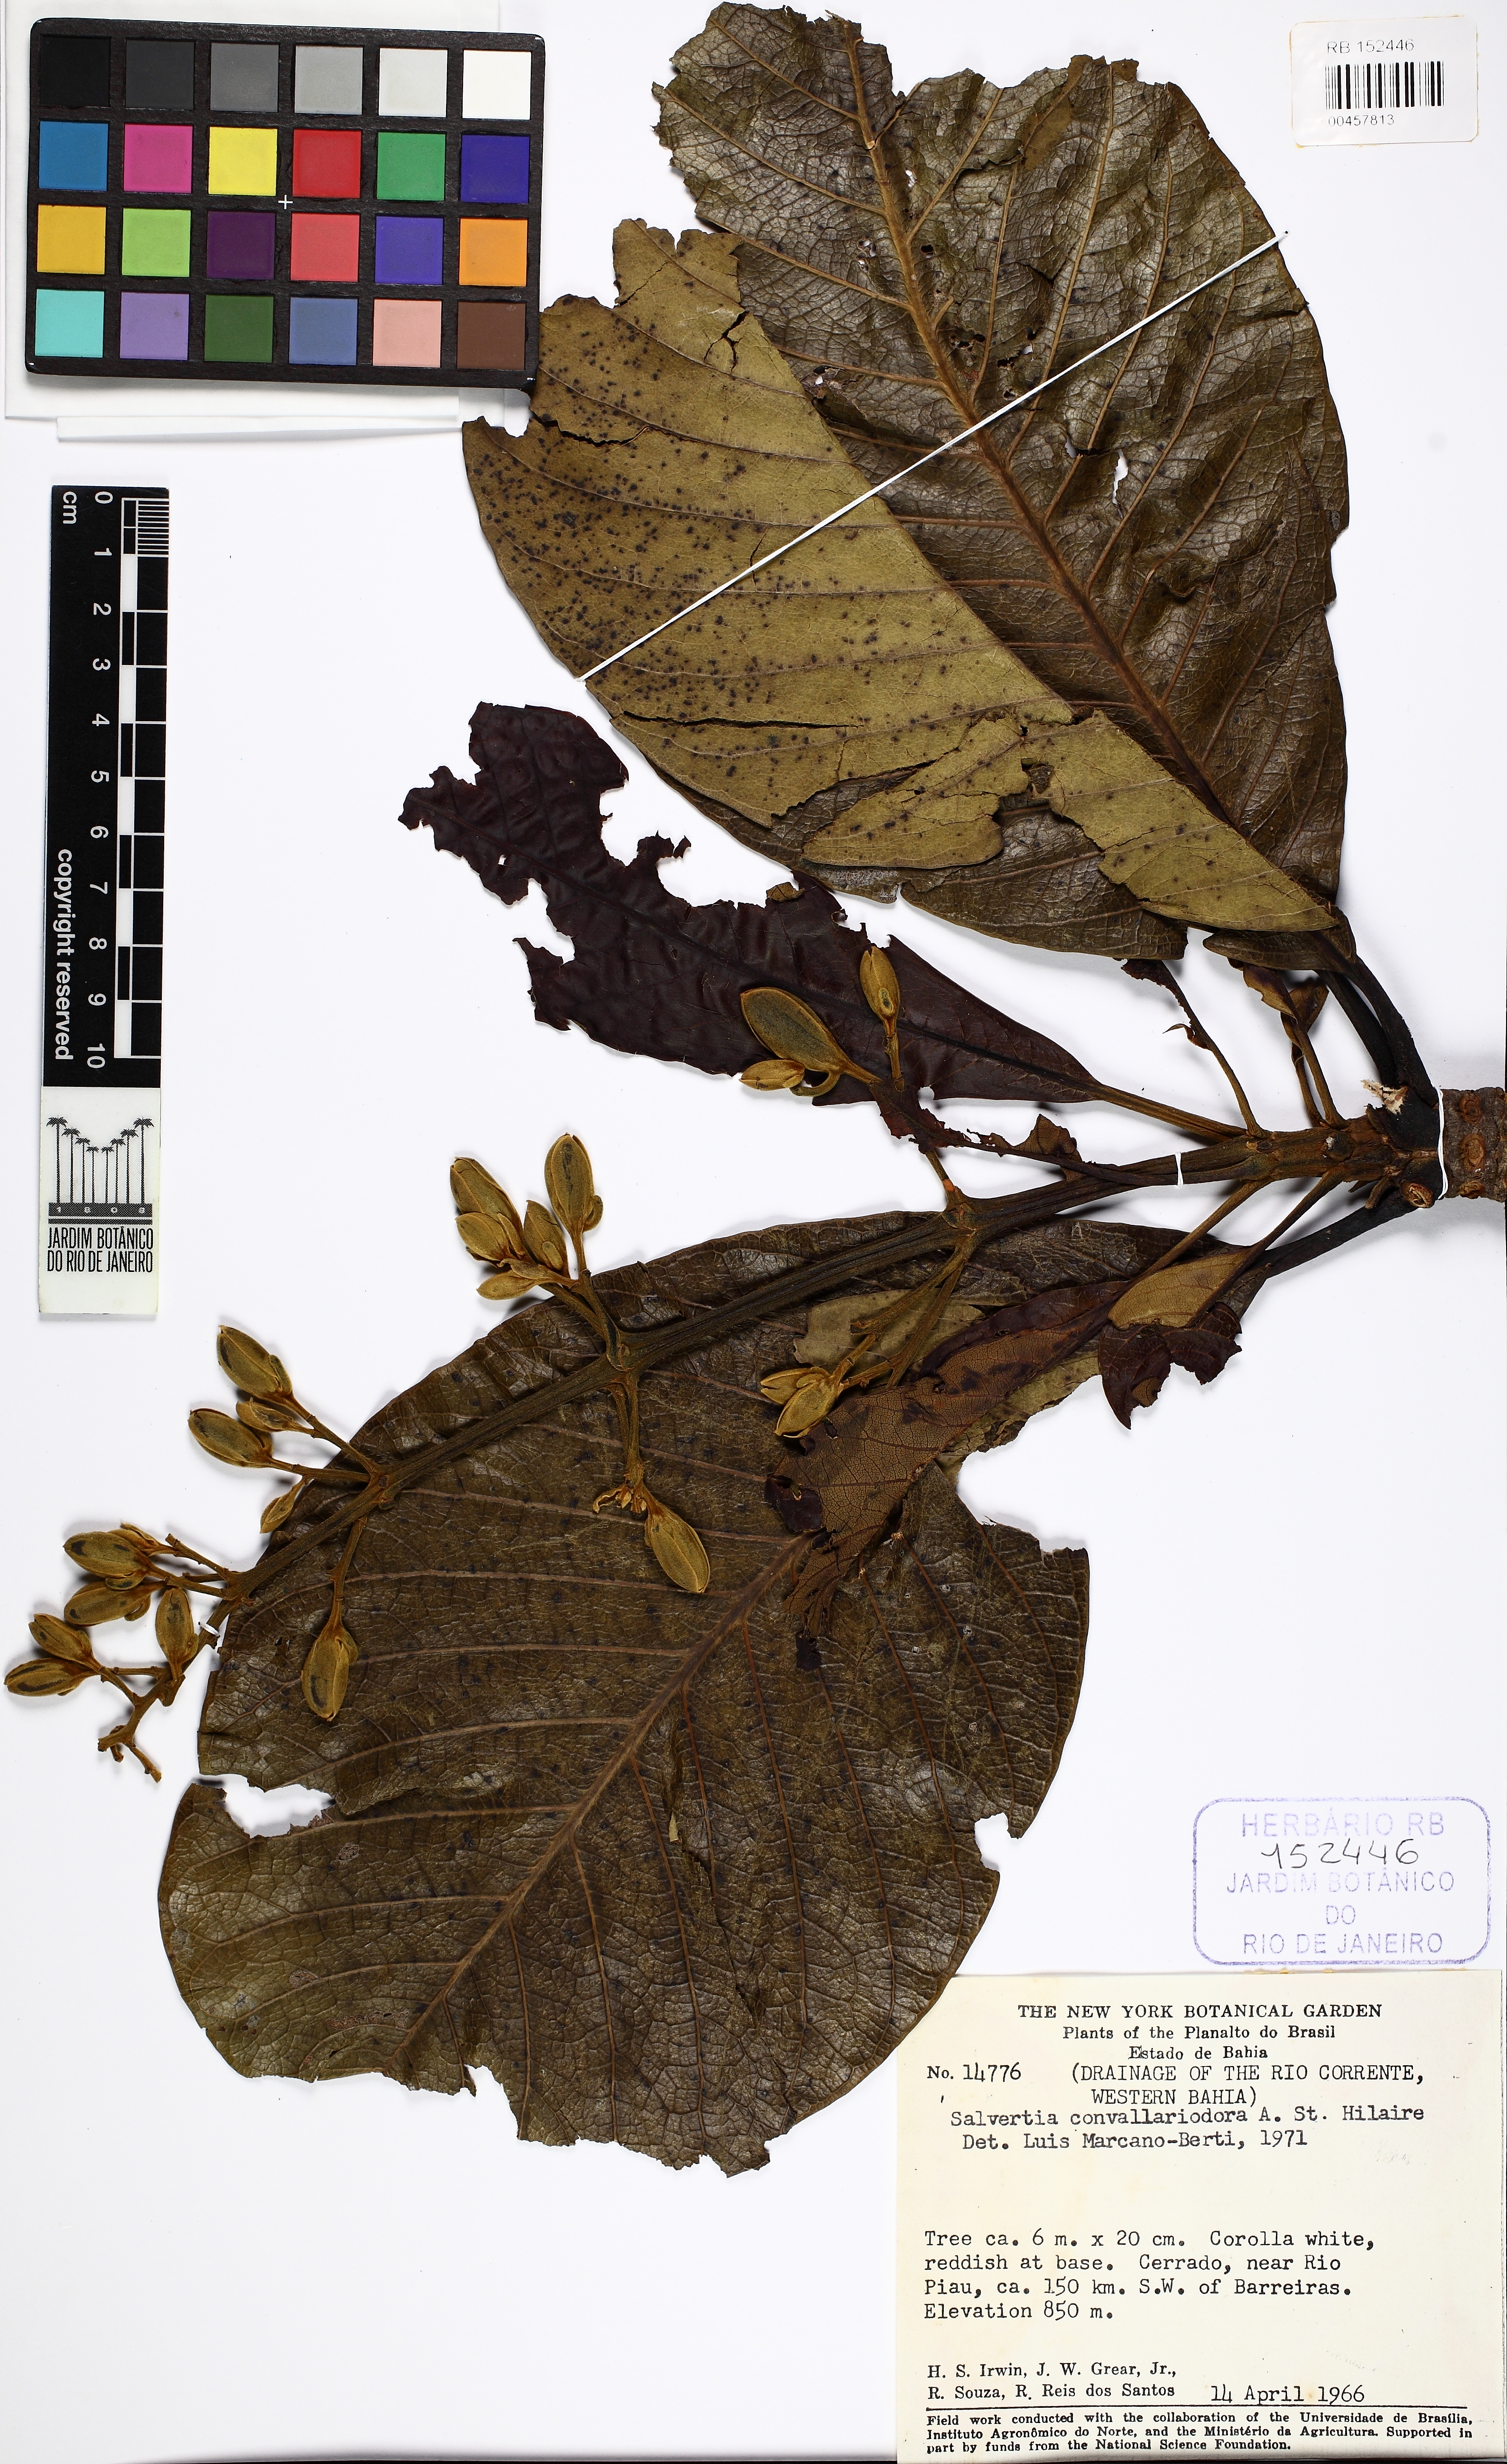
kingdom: Plantae
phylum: Tracheophyta
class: Magnoliopsida
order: Myrtales
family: Vochysiaceae
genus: Salvertia
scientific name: Salvertia convallariodora
